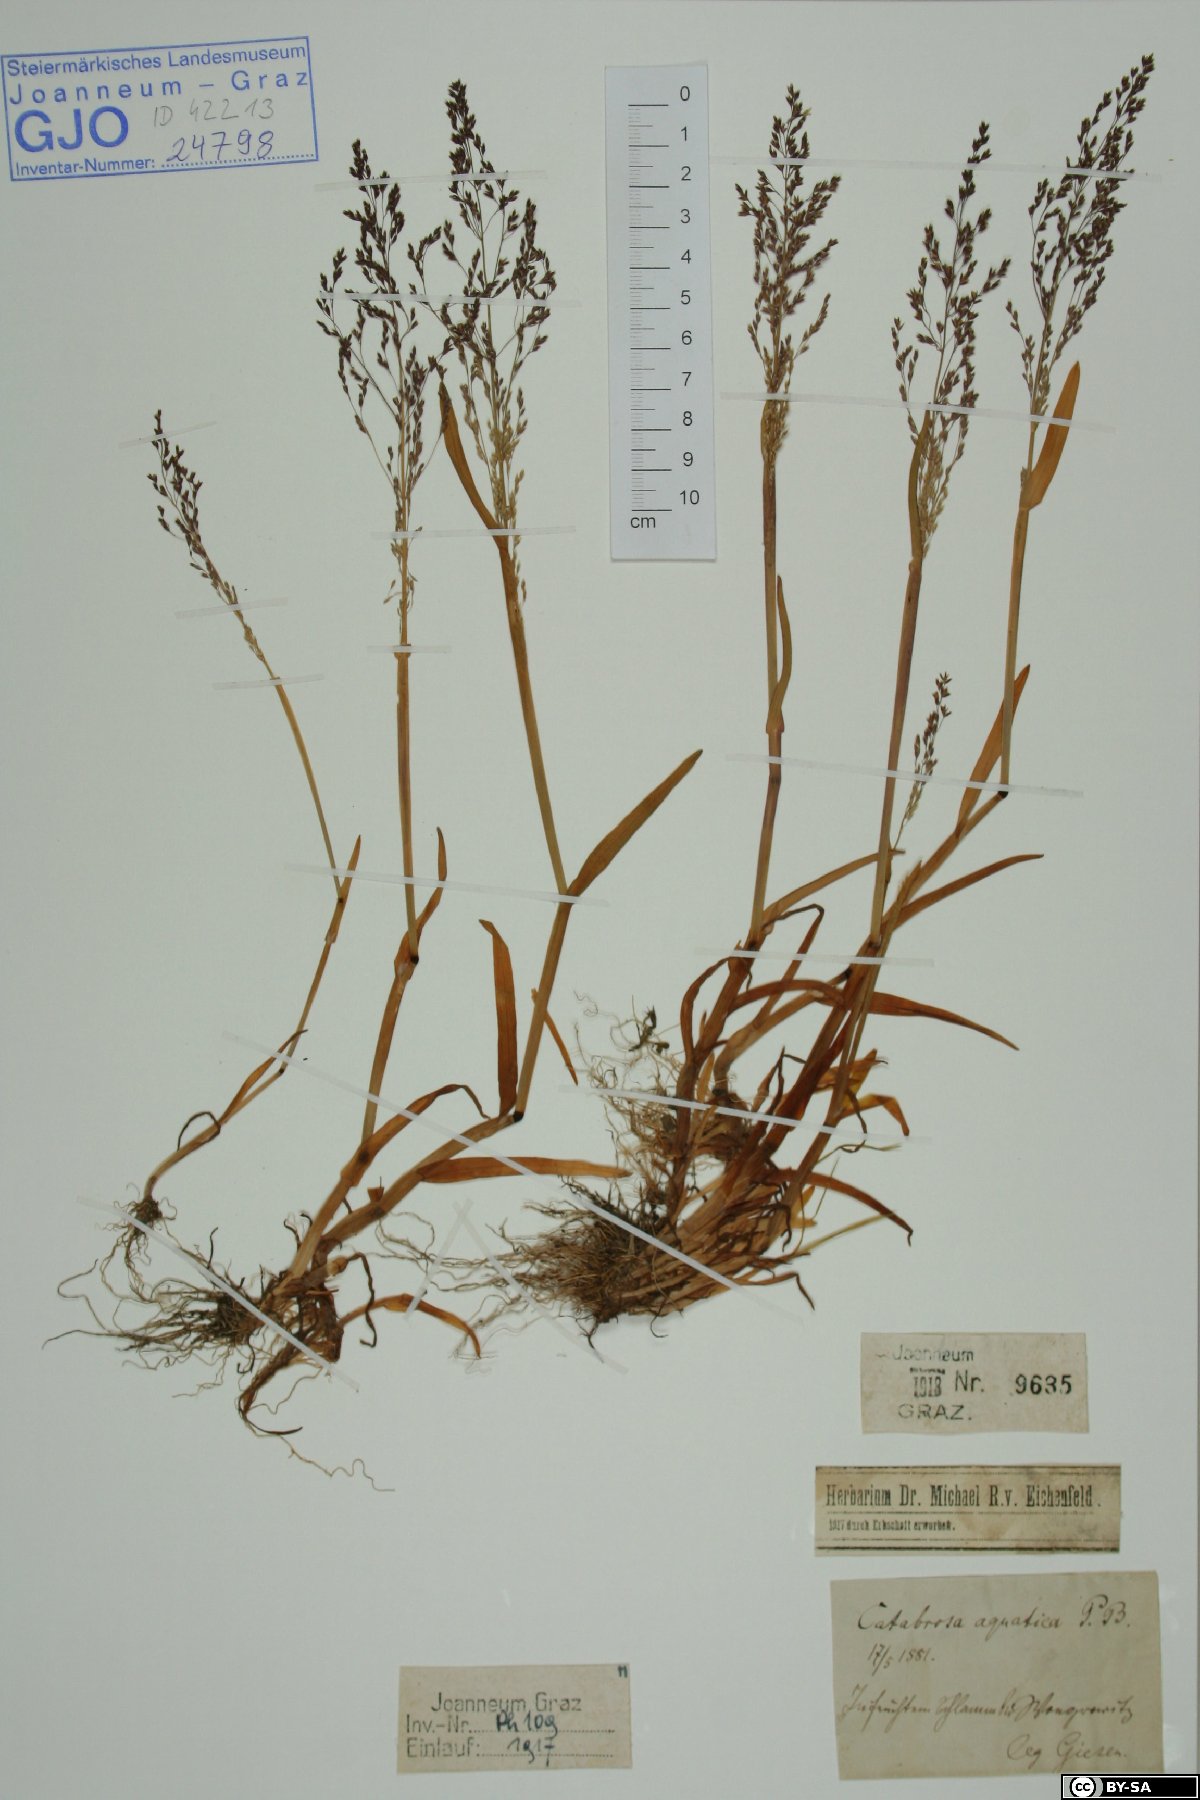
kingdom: Plantae
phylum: Tracheophyta
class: Liliopsida
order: Poales
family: Poaceae
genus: Catabrosa
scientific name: Catabrosa aquatica
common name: Whorl-grass
